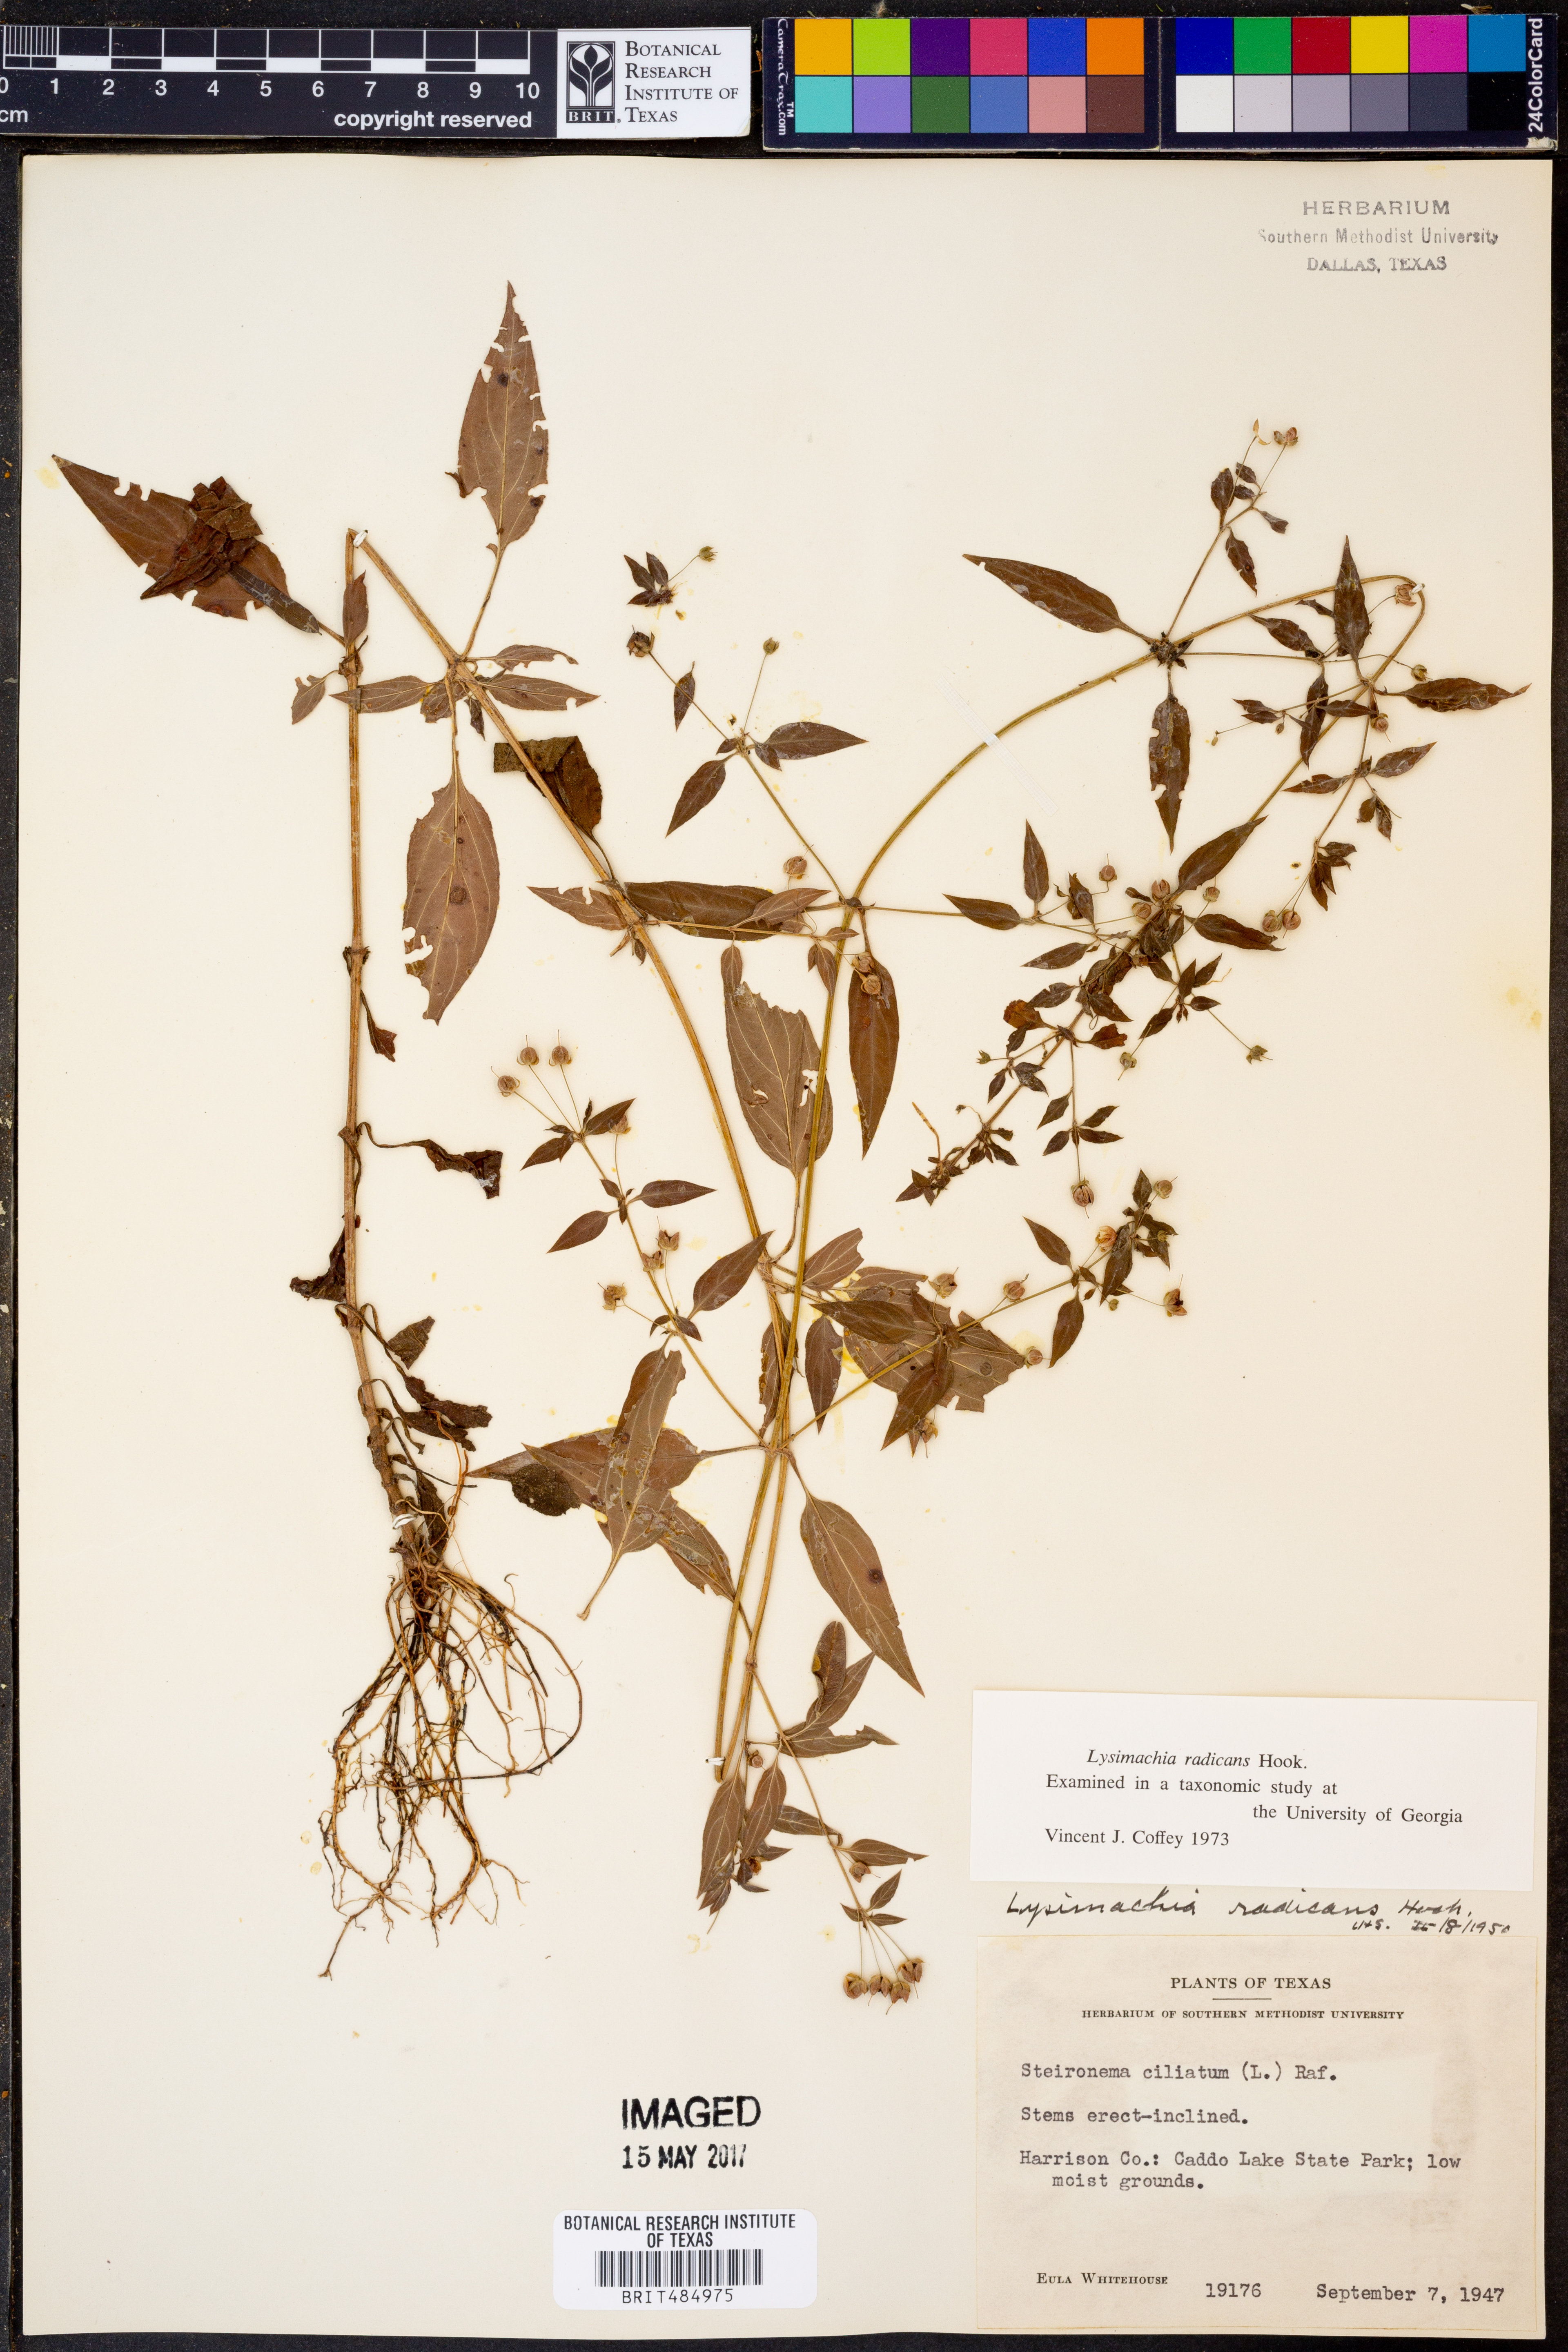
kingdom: Plantae
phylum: Tracheophyta
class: Magnoliopsida
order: Ericales
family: Primulaceae
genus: Lysimachia
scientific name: Lysimachia radicans
